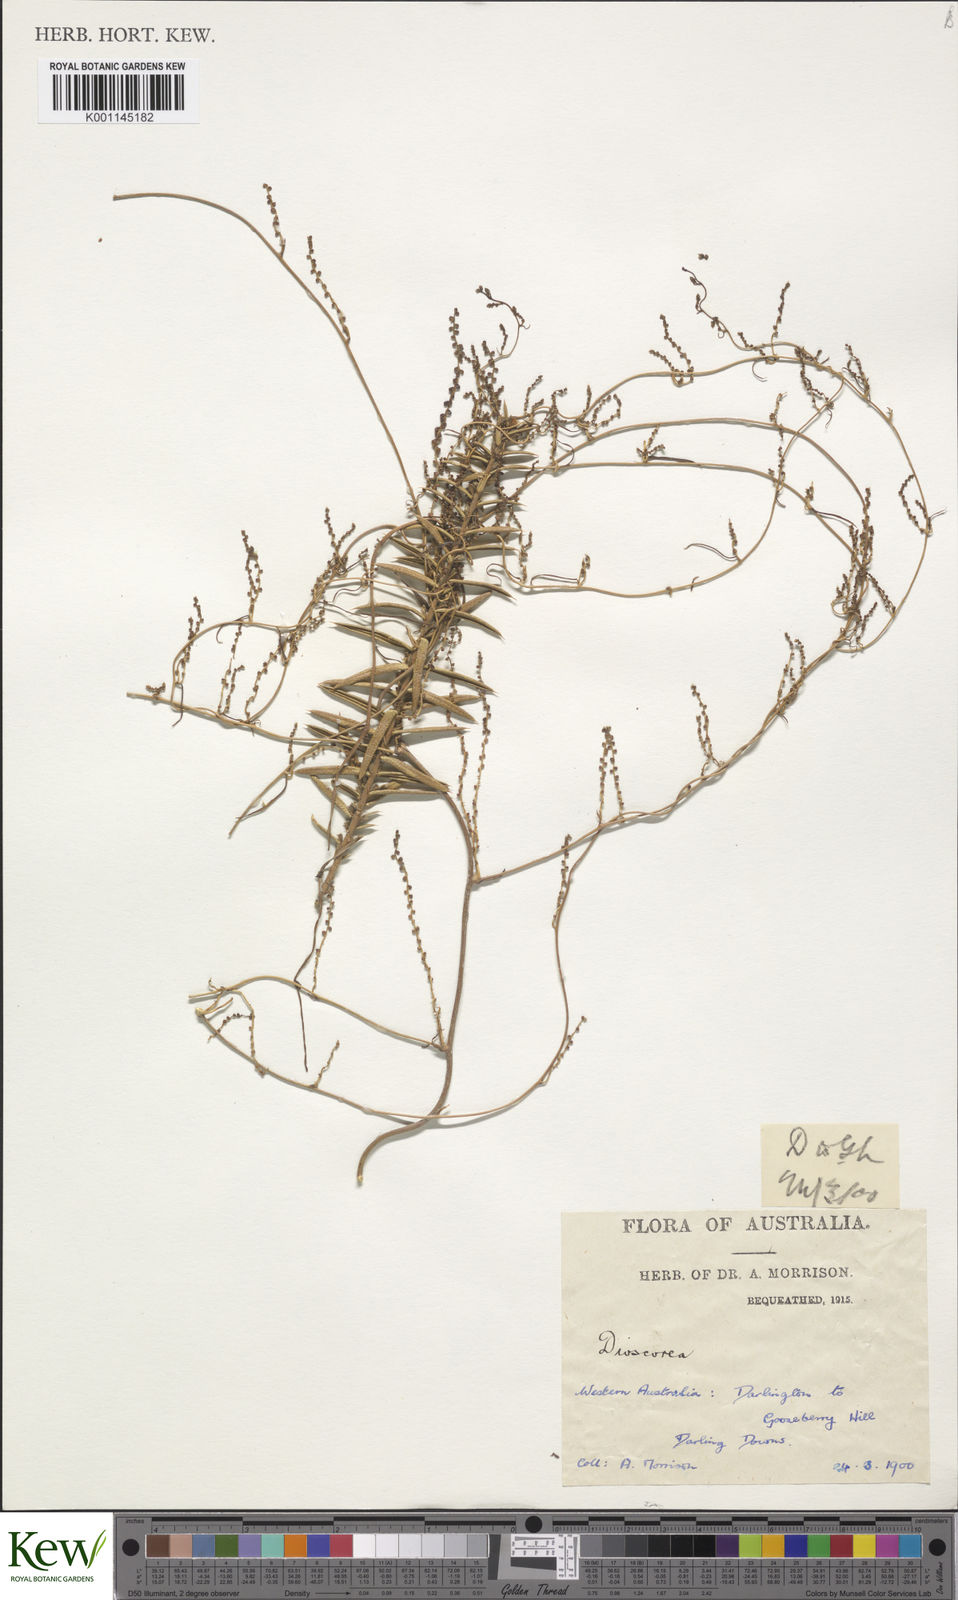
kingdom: Plantae
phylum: Tracheophyta
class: Liliopsida
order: Dioscoreales
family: Dioscoreaceae
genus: Dioscorea
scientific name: Dioscorea
